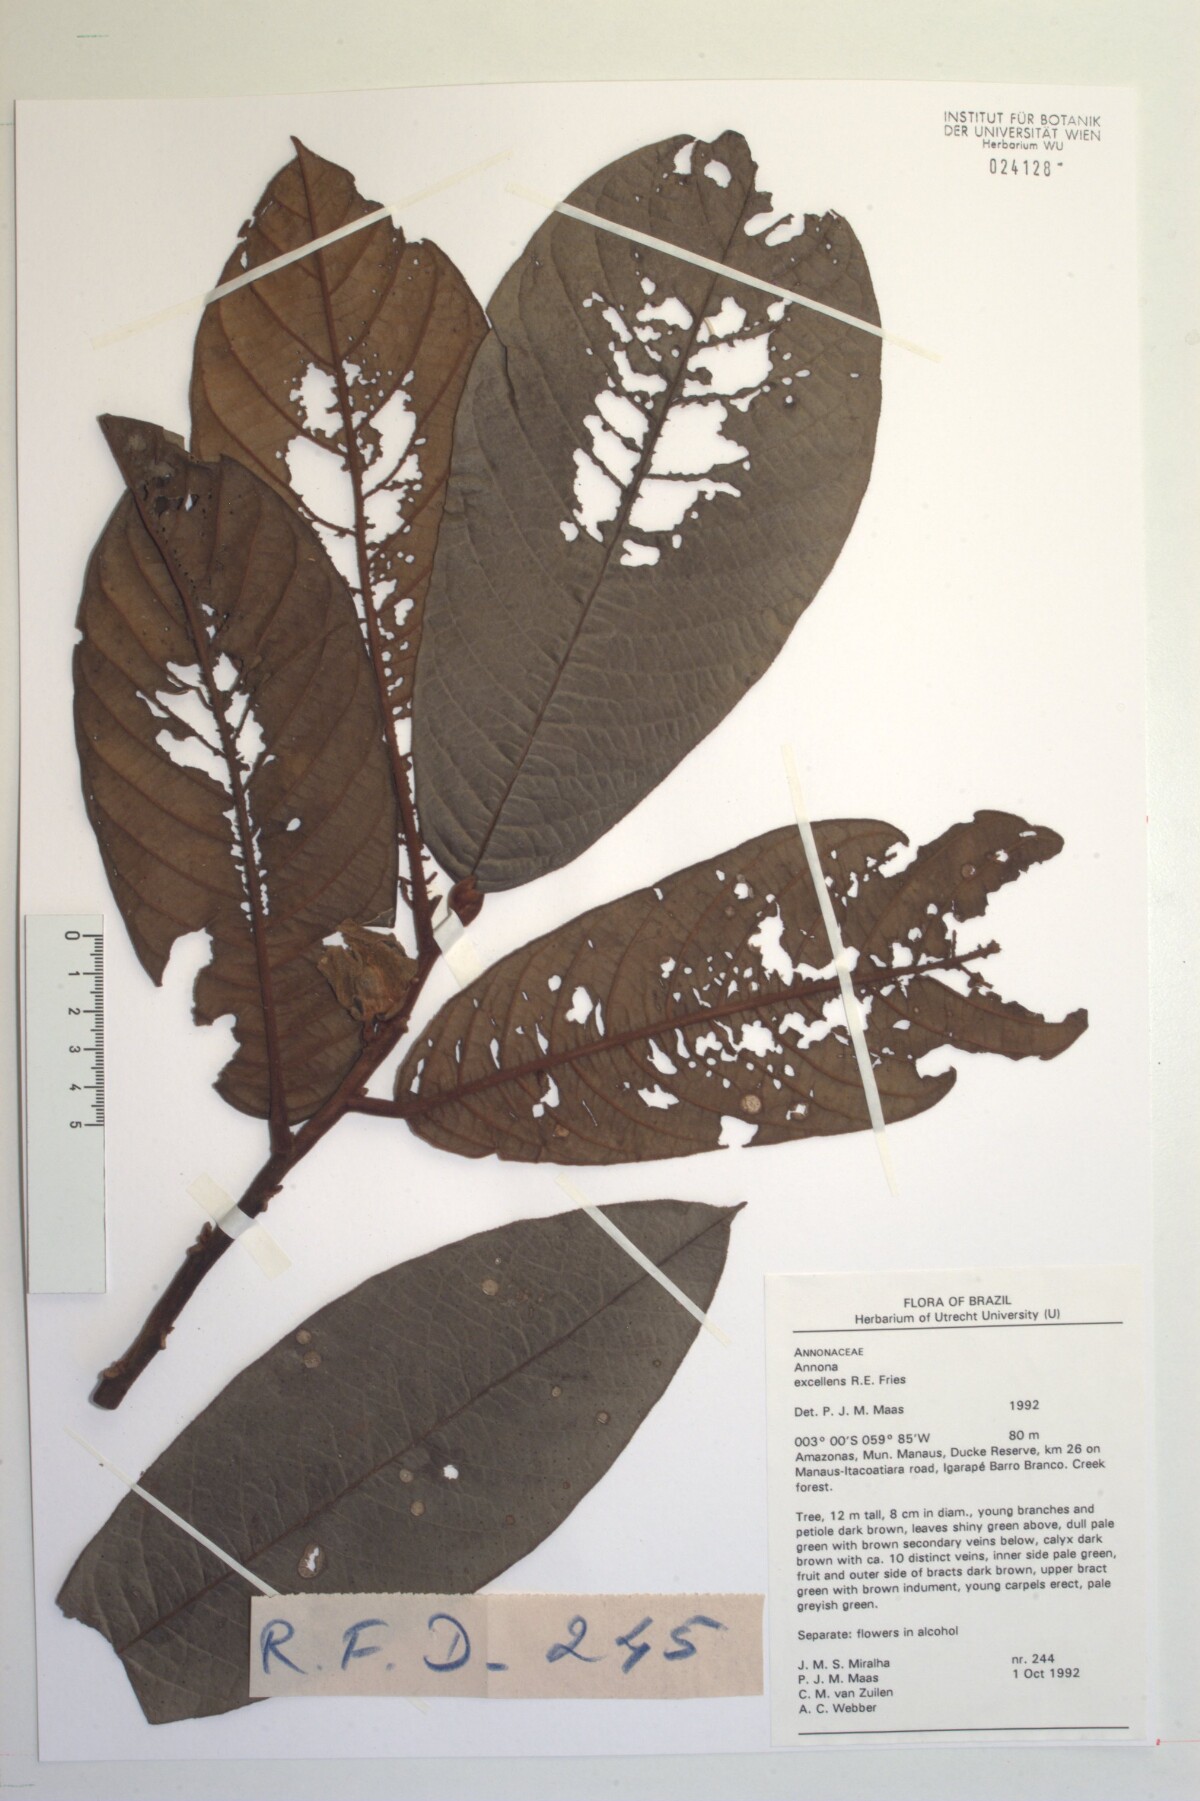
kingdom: Plantae
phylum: Tracheophyta
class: Magnoliopsida
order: Magnoliales
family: Annonaceae
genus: Annona
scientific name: Annona
